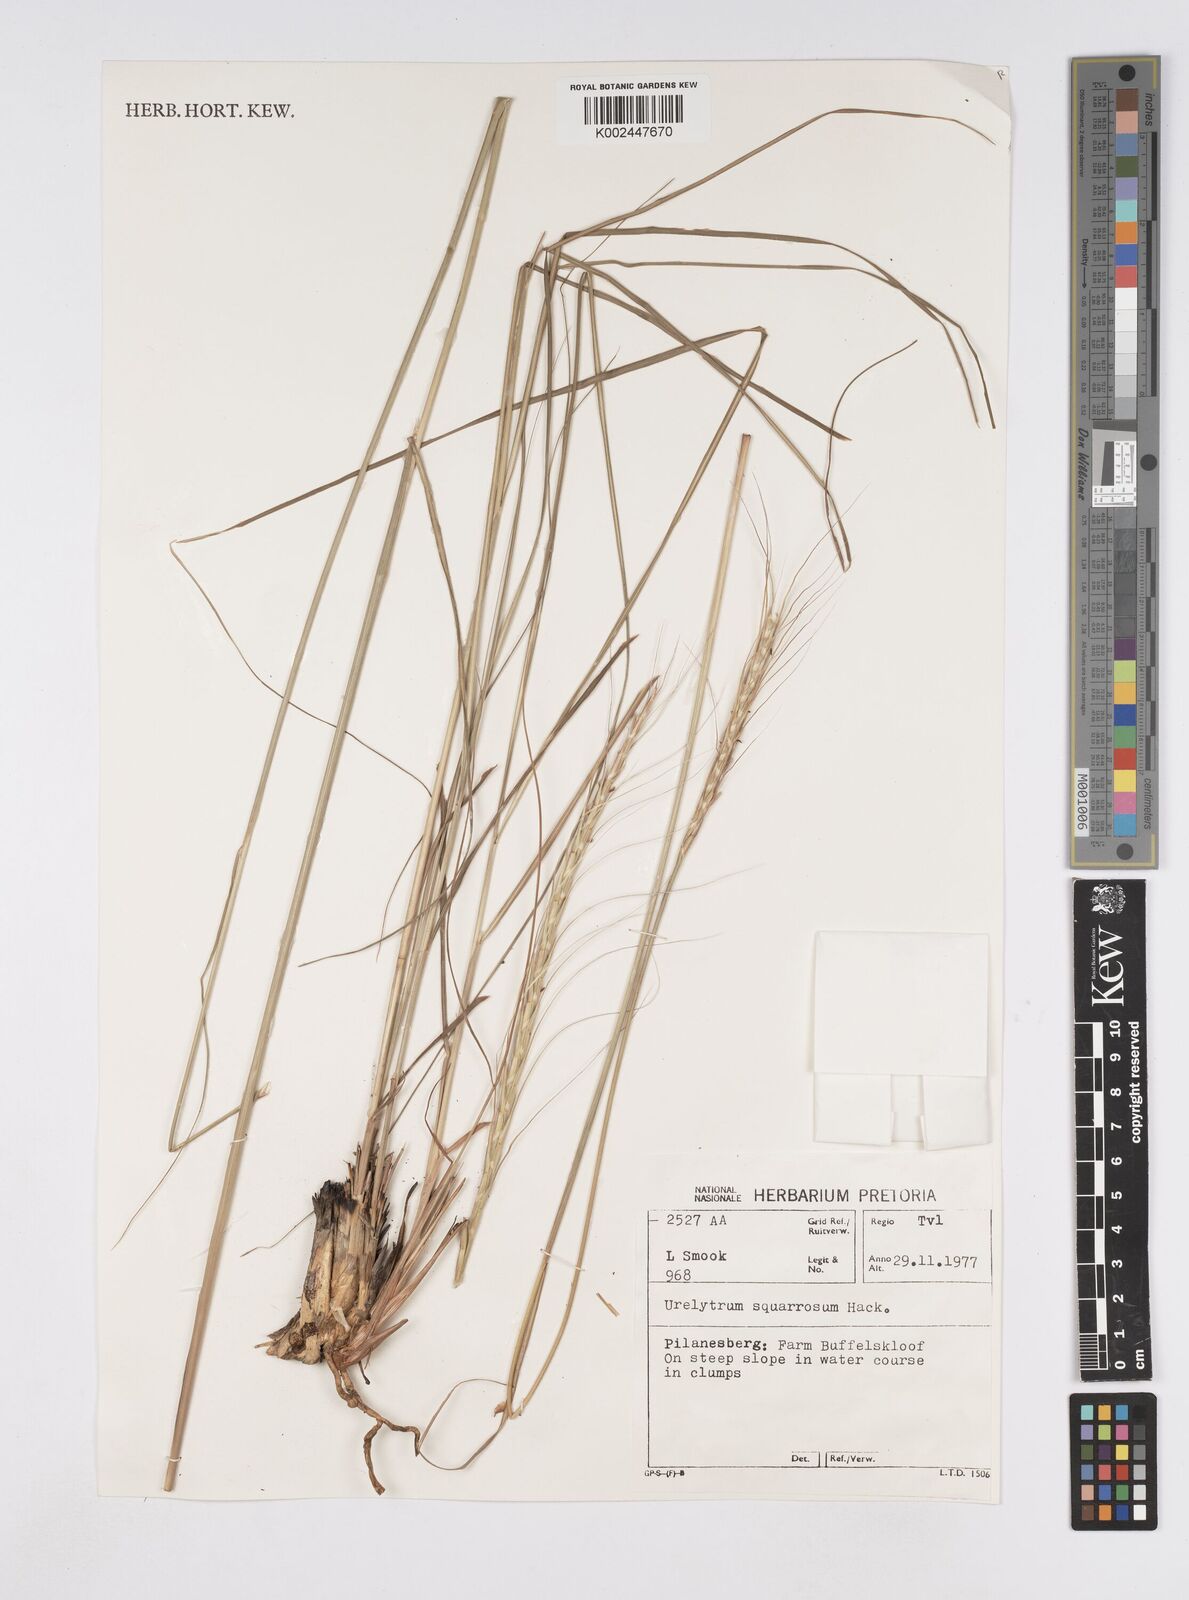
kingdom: Plantae
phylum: Tracheophyta
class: Liliopsida
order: Poales
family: Poaceae
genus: Urelytrum
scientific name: Urelytrum agropyroides
